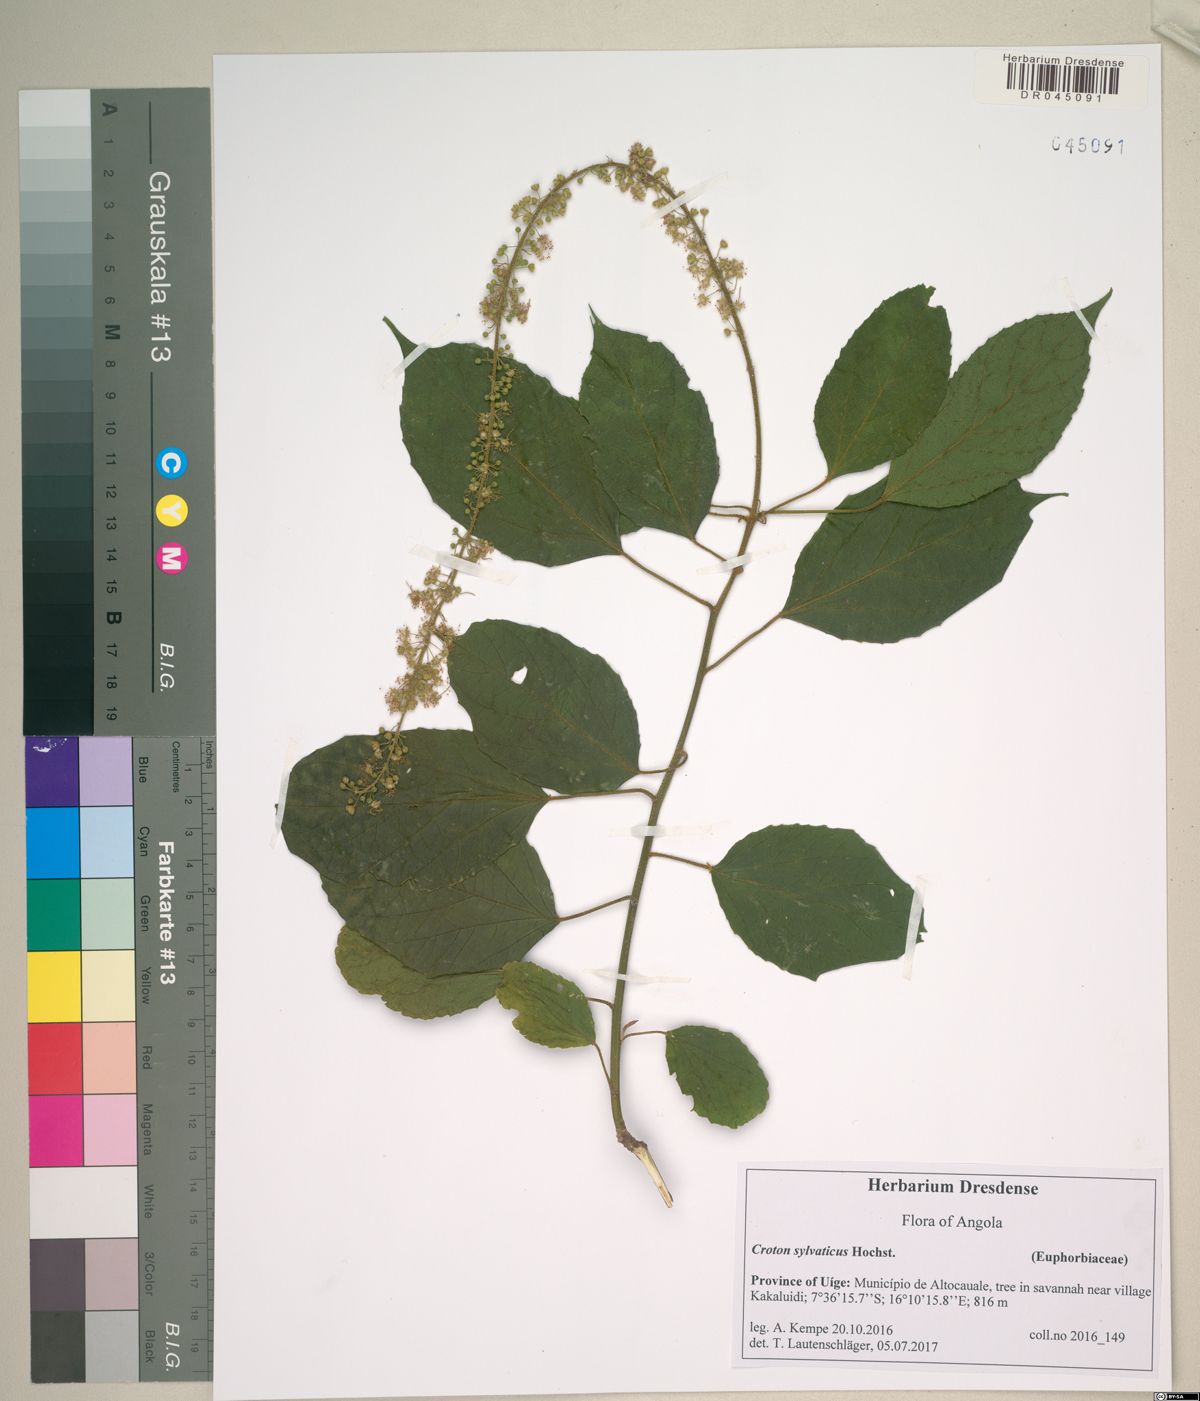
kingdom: Plantae
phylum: Tracheophyta
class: Magnoliopsida
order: Malpighiales
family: Euphorbiaceae
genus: Croton
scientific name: Croton reflexifolius
